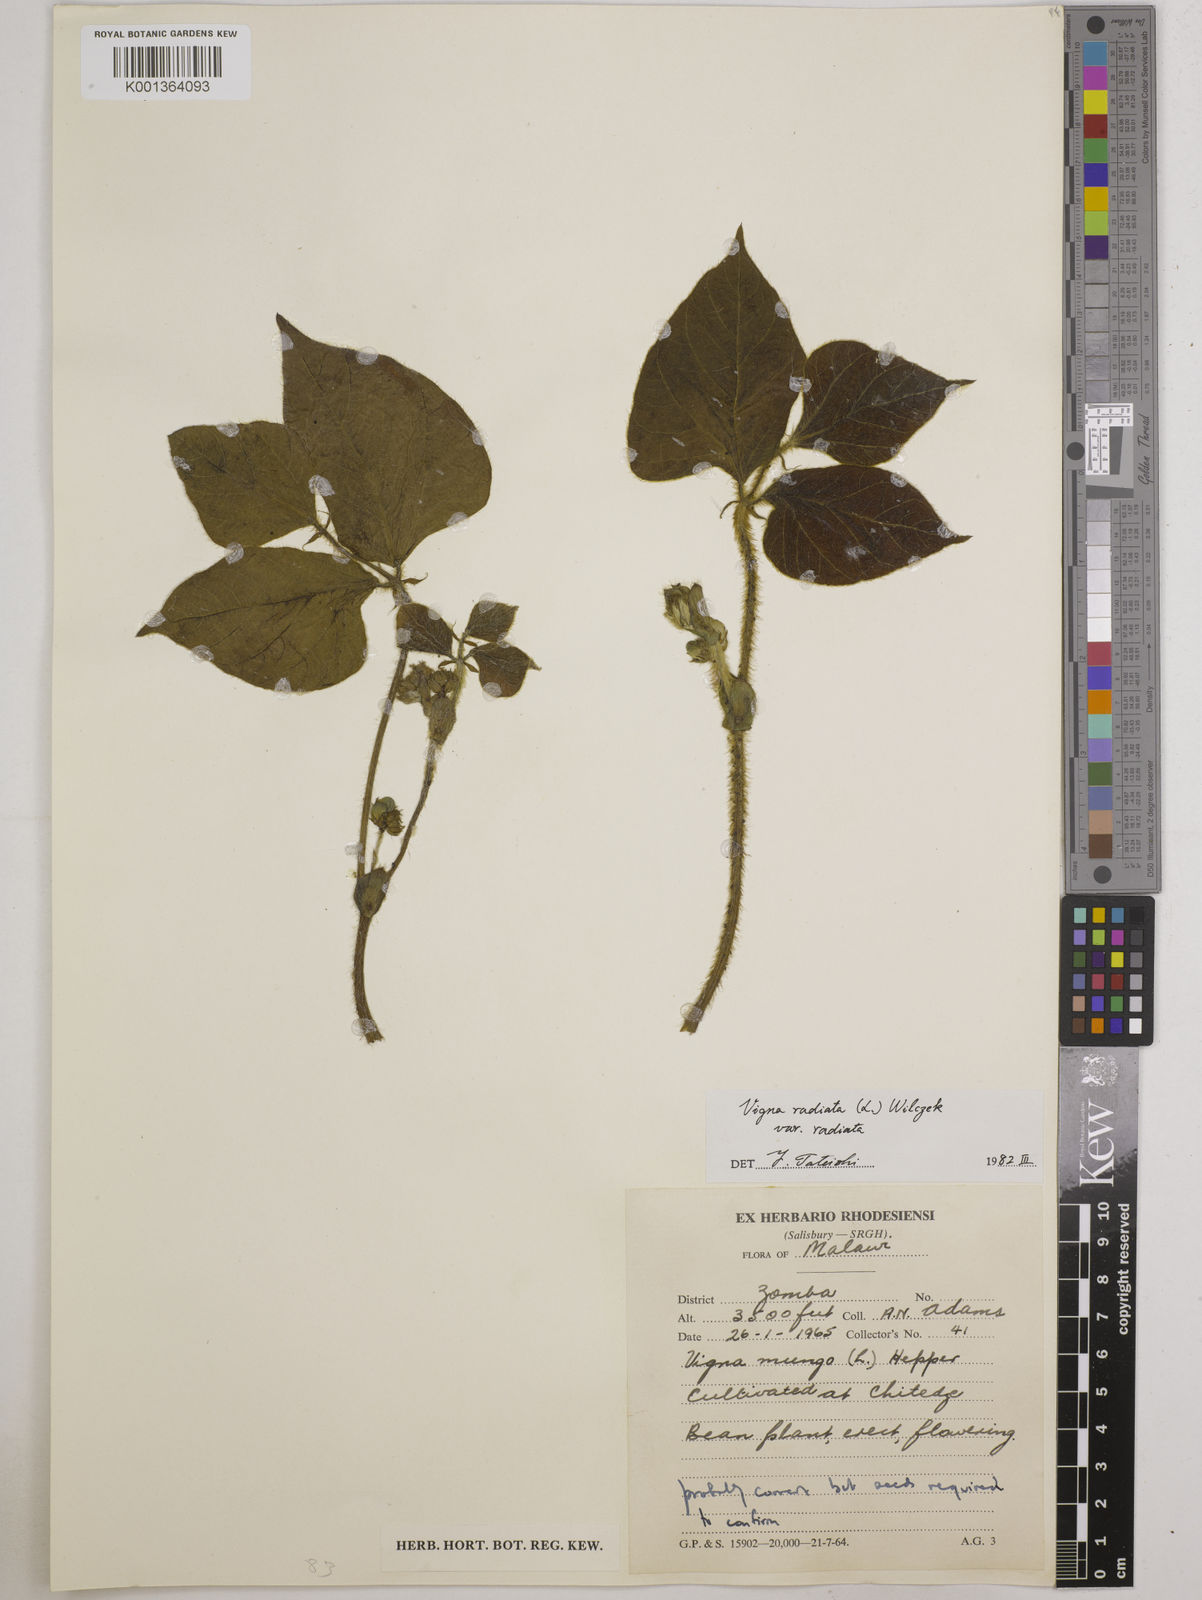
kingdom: Plantae
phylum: Tracheophyta
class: Magnoliopsida
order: Fabales
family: Fabaceae
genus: Vigna
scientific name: Vigna radiata
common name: Mung-bean
